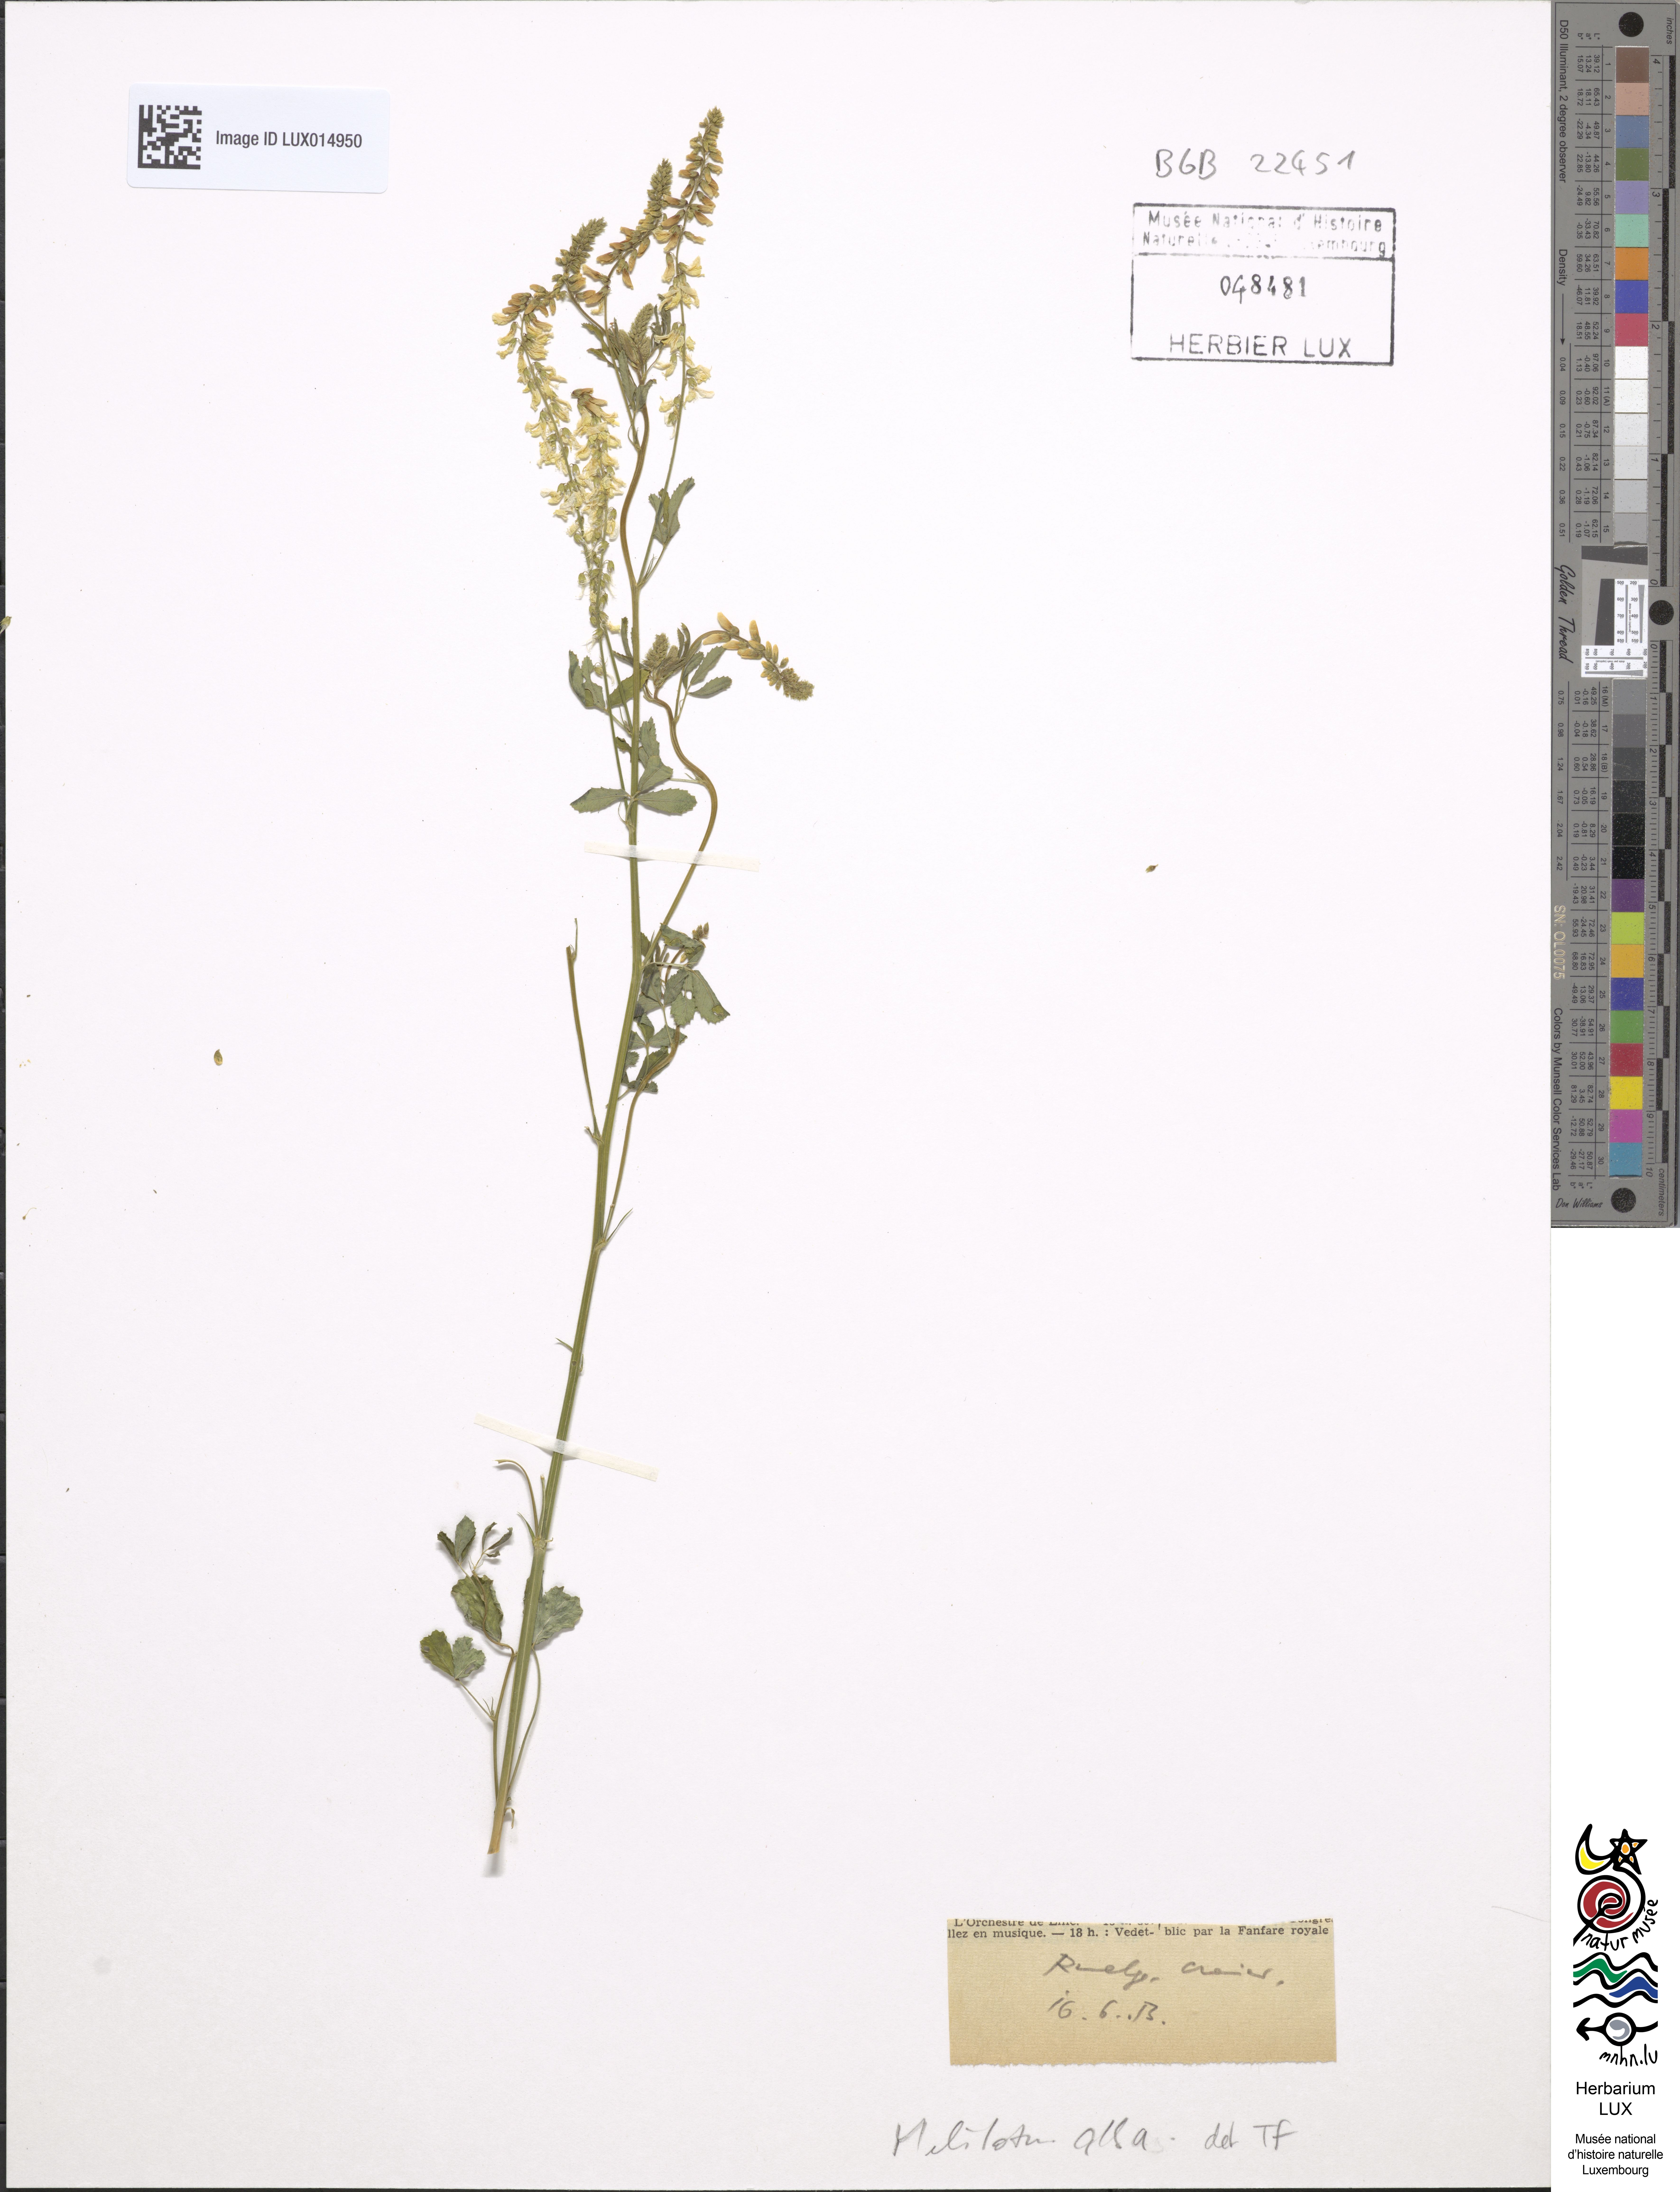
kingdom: Plantae
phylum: Tracheophyta
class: Magnoliopsida
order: Fabales
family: Fabaceae
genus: Melilotus
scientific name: Melilotus albus
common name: White melilot
